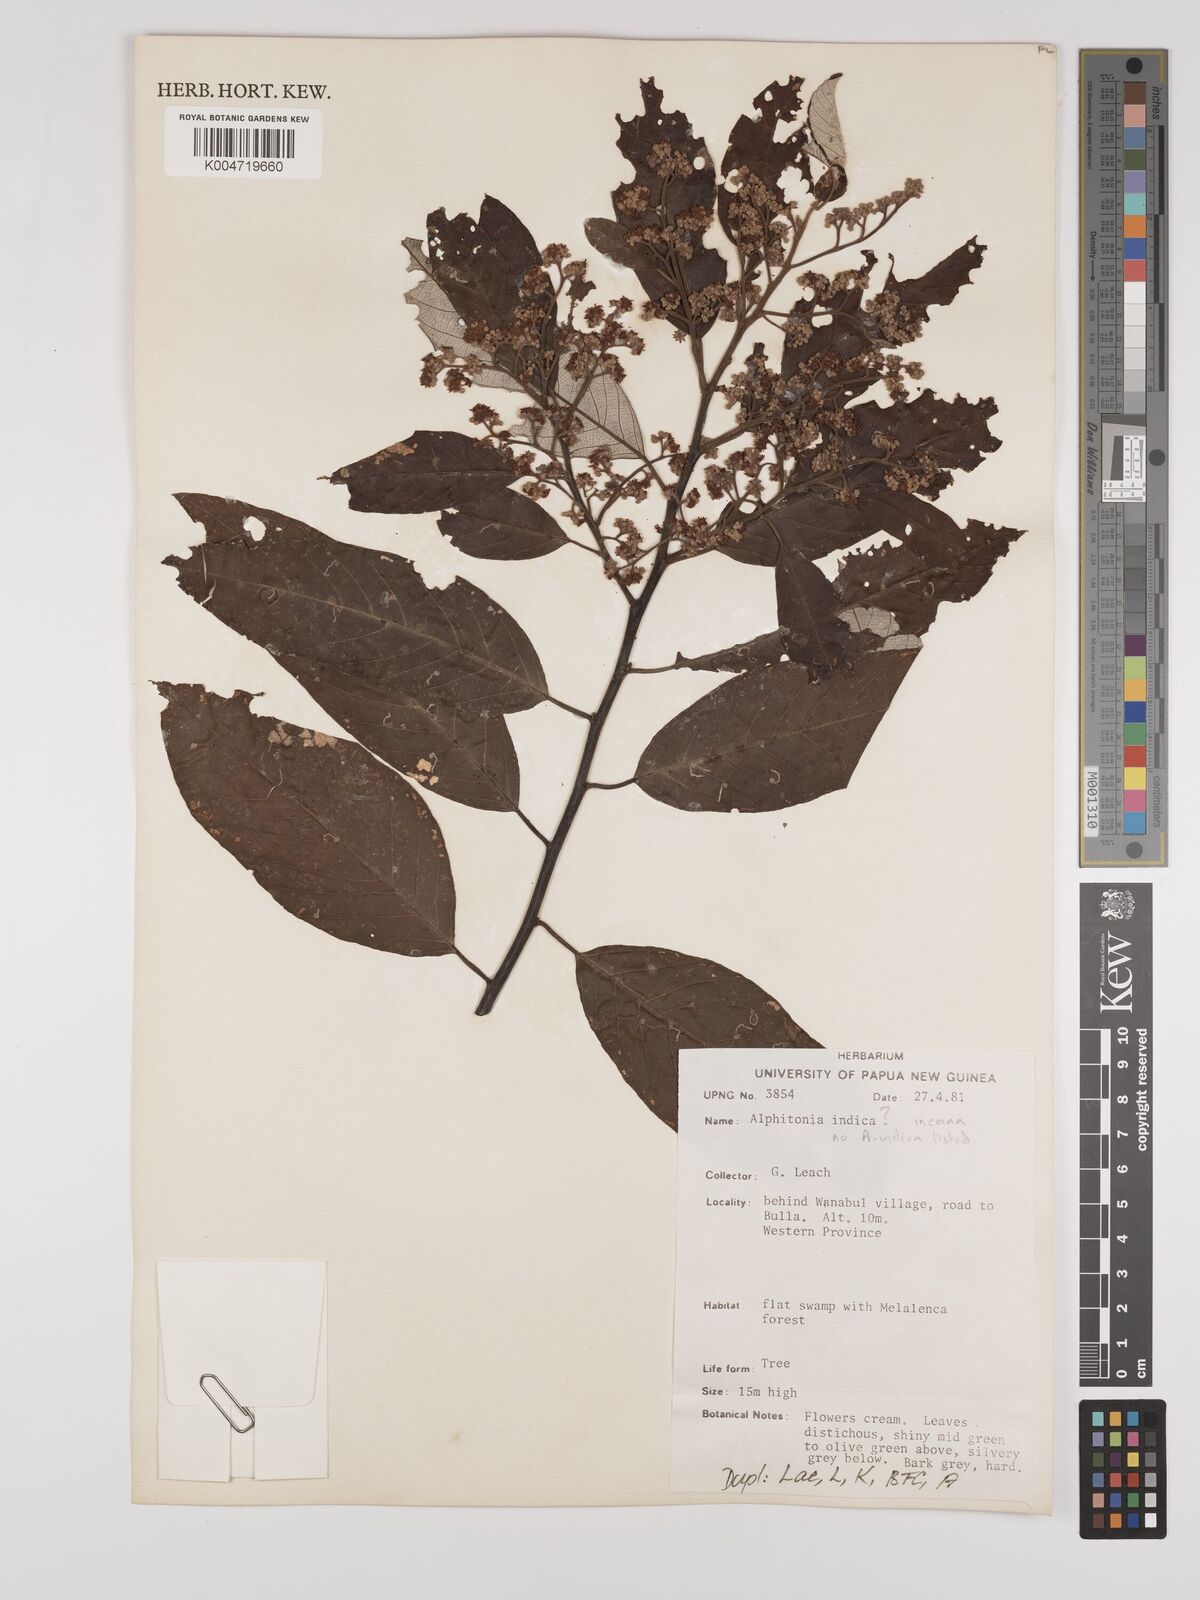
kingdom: Plantae
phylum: Tracheophyta
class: Magnoliopsida
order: Rosales
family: Rhamnaceae
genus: Alphitonia
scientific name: Alphitonia
